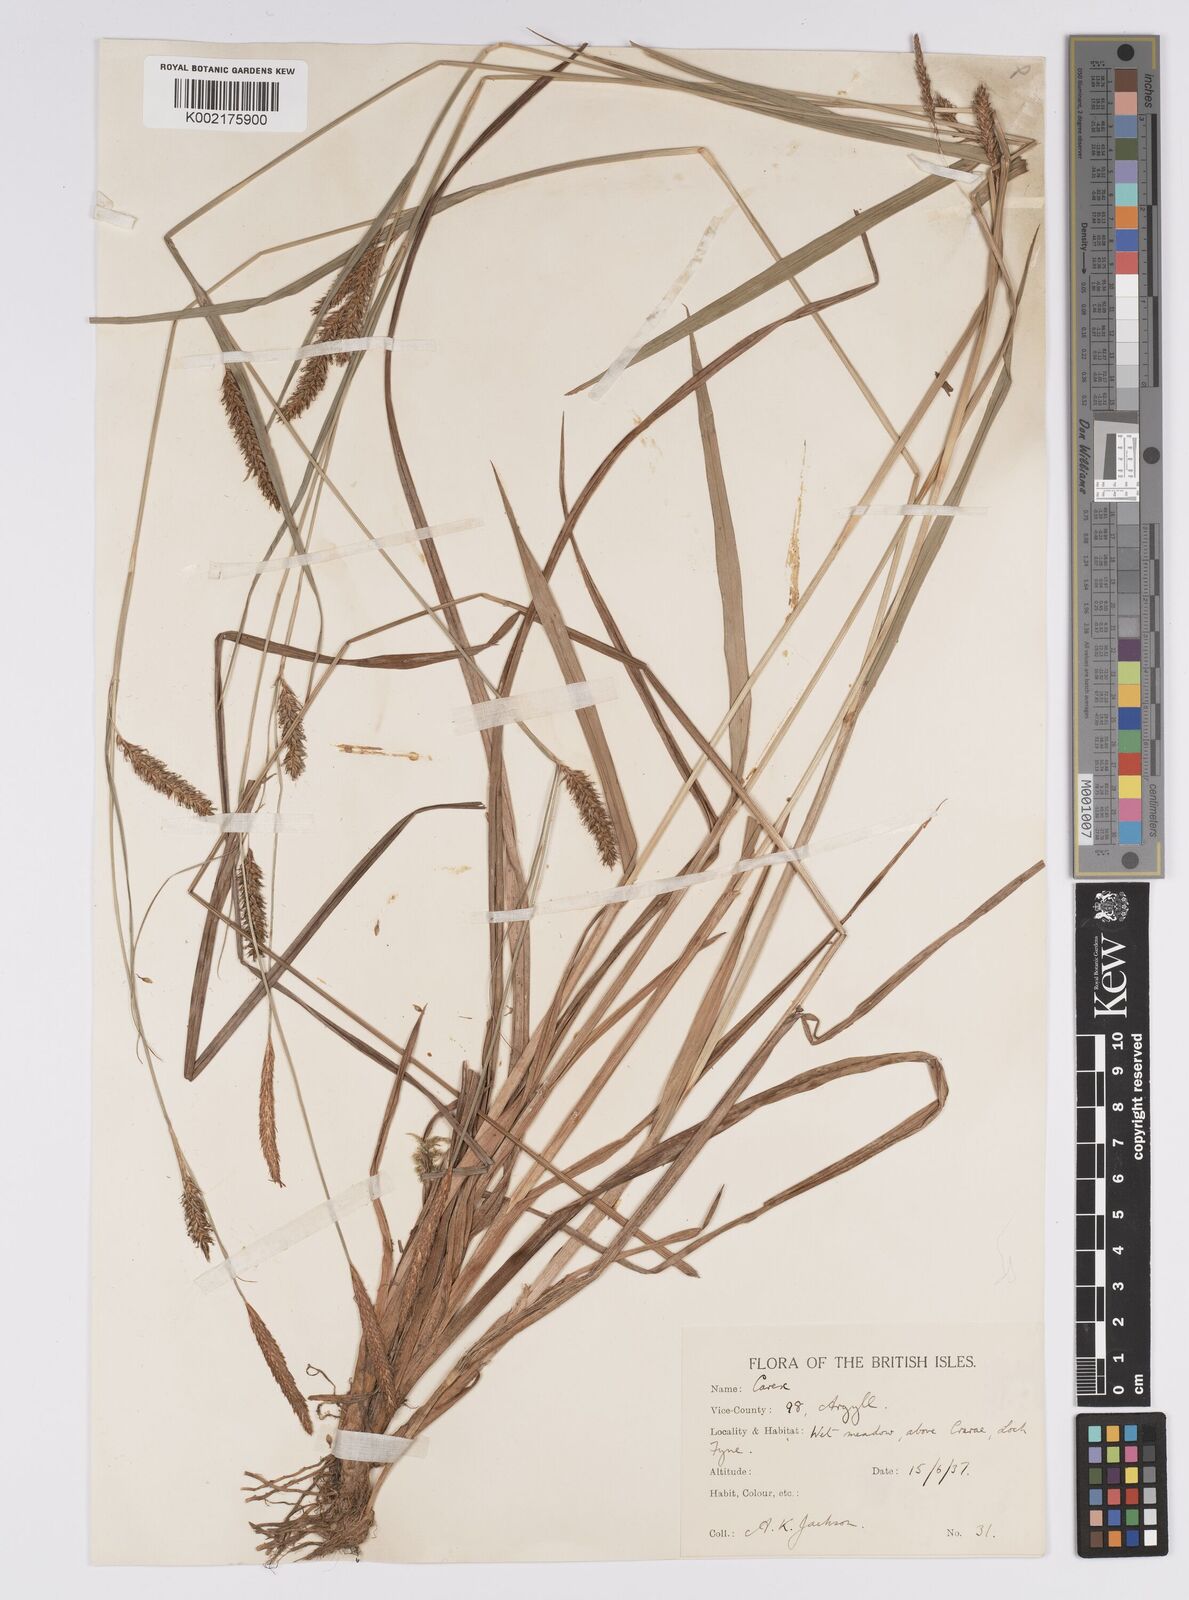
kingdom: Plantae
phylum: Tracheophyta
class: Liliopsida
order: Poales
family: Cyperaceae
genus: Carex
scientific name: Carex laevigata
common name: Smooth-stalked sedge
